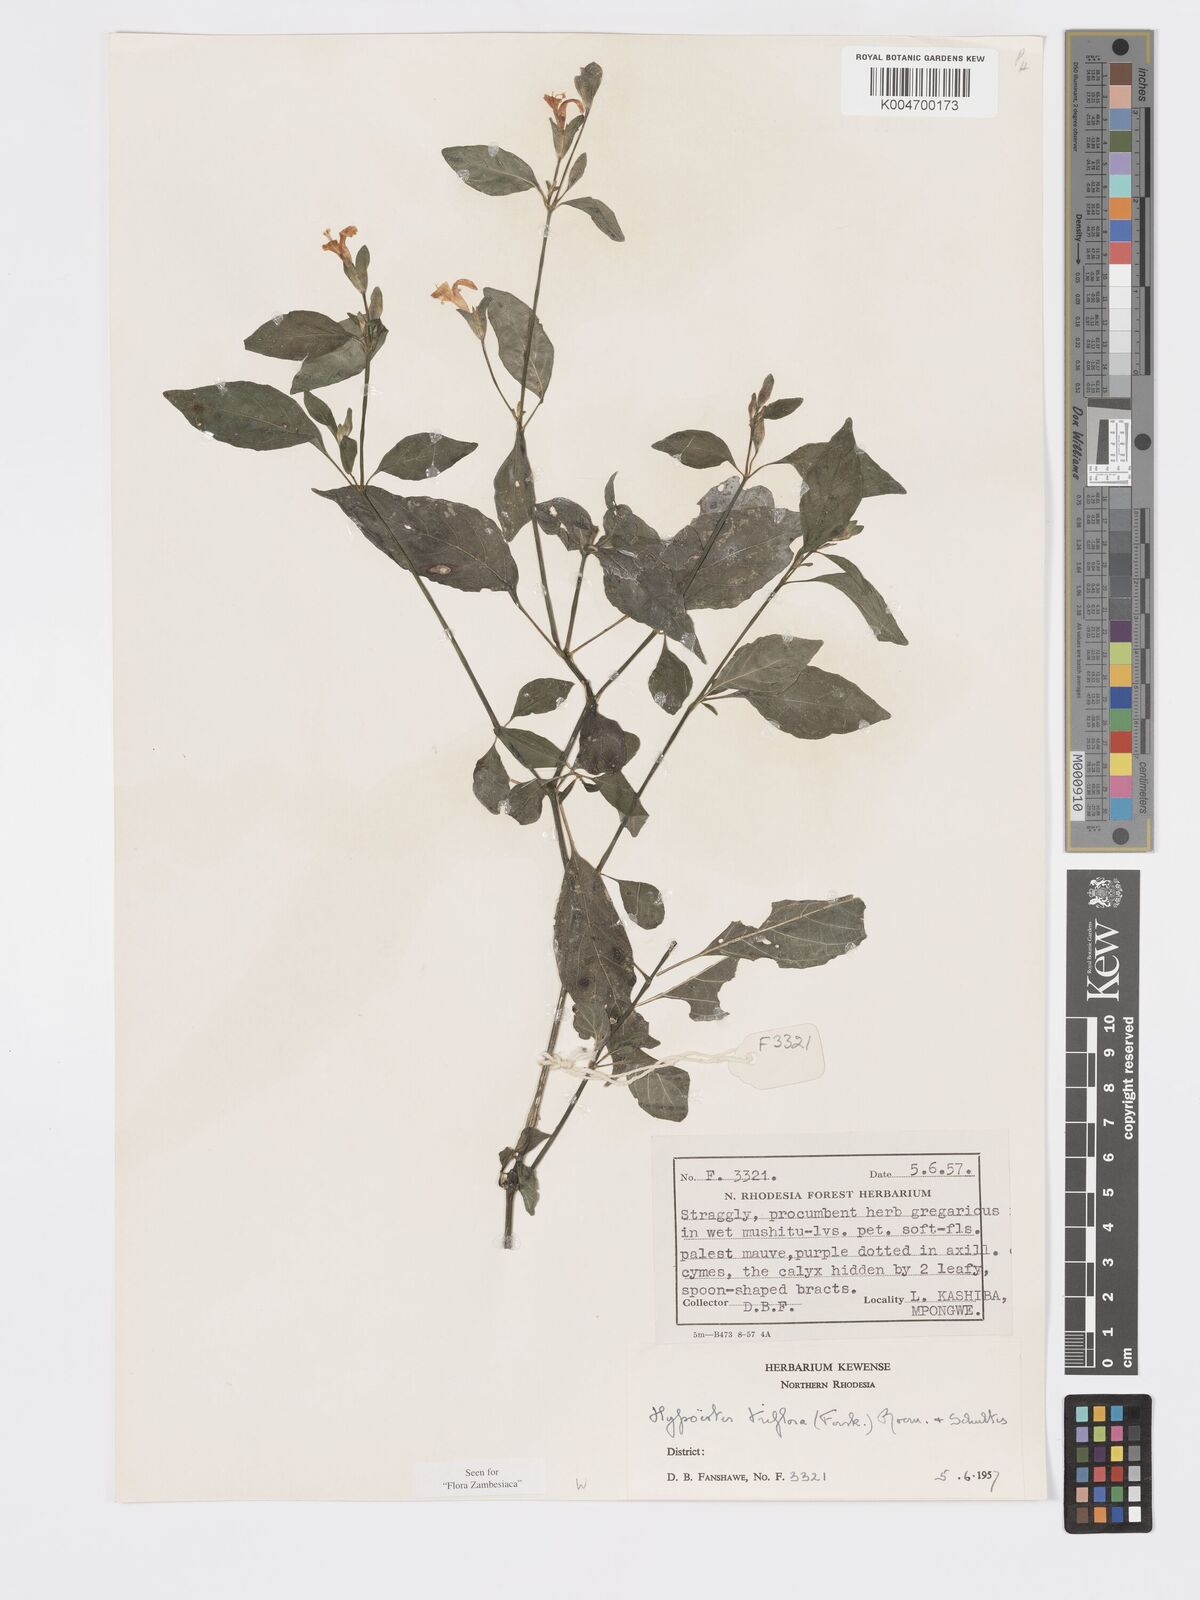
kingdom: Plantae
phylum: Tracheophyta
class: Magnoliopsida
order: Lamiales
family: Acanthaceae
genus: Hypoestes
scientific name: Hypoestes triflora
